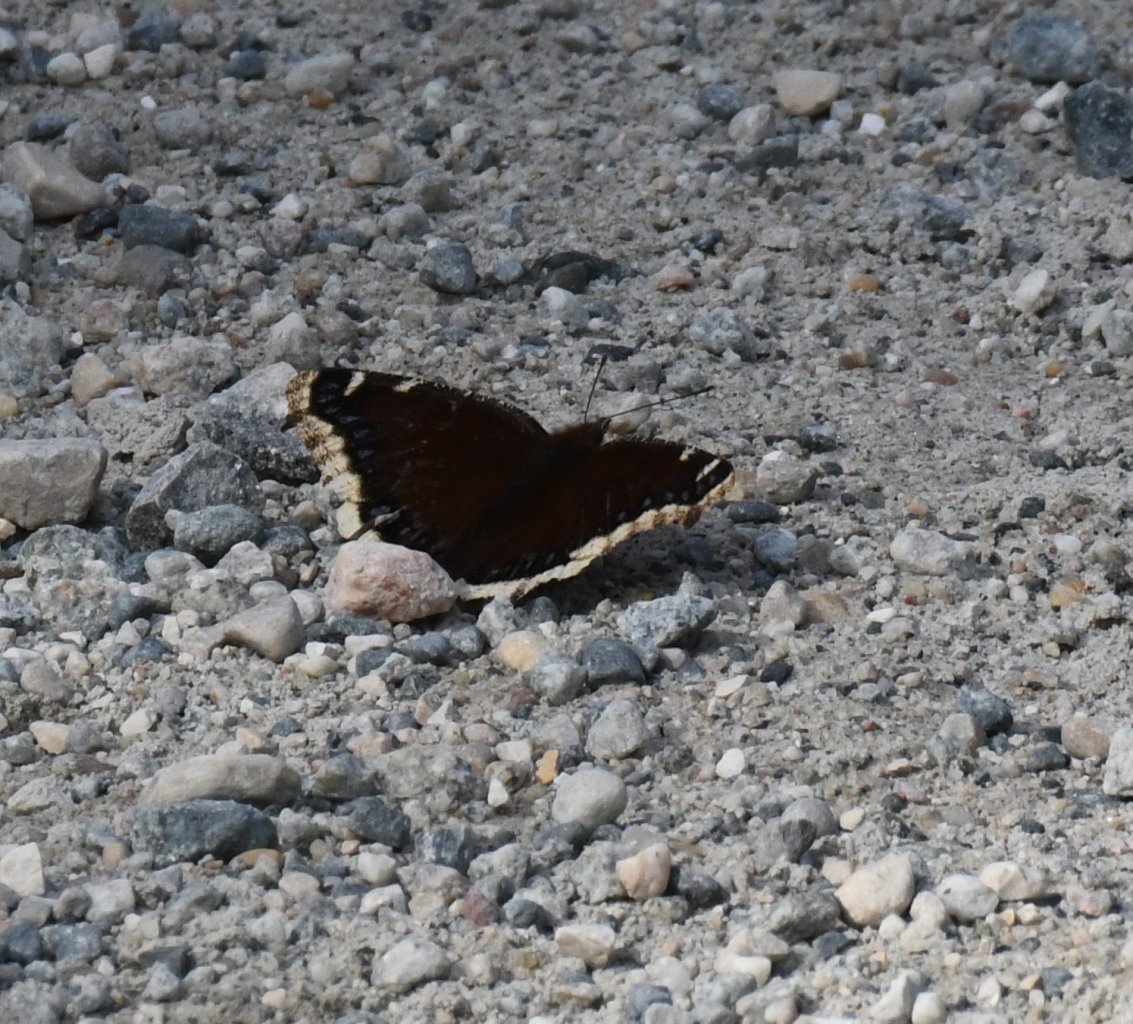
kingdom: Animalia
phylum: Arthropoda
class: Insecta
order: Lepidoptera
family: Nymphalidae
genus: Nymphalis
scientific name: Nymphalis antiopa
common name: Mourning Cloak
